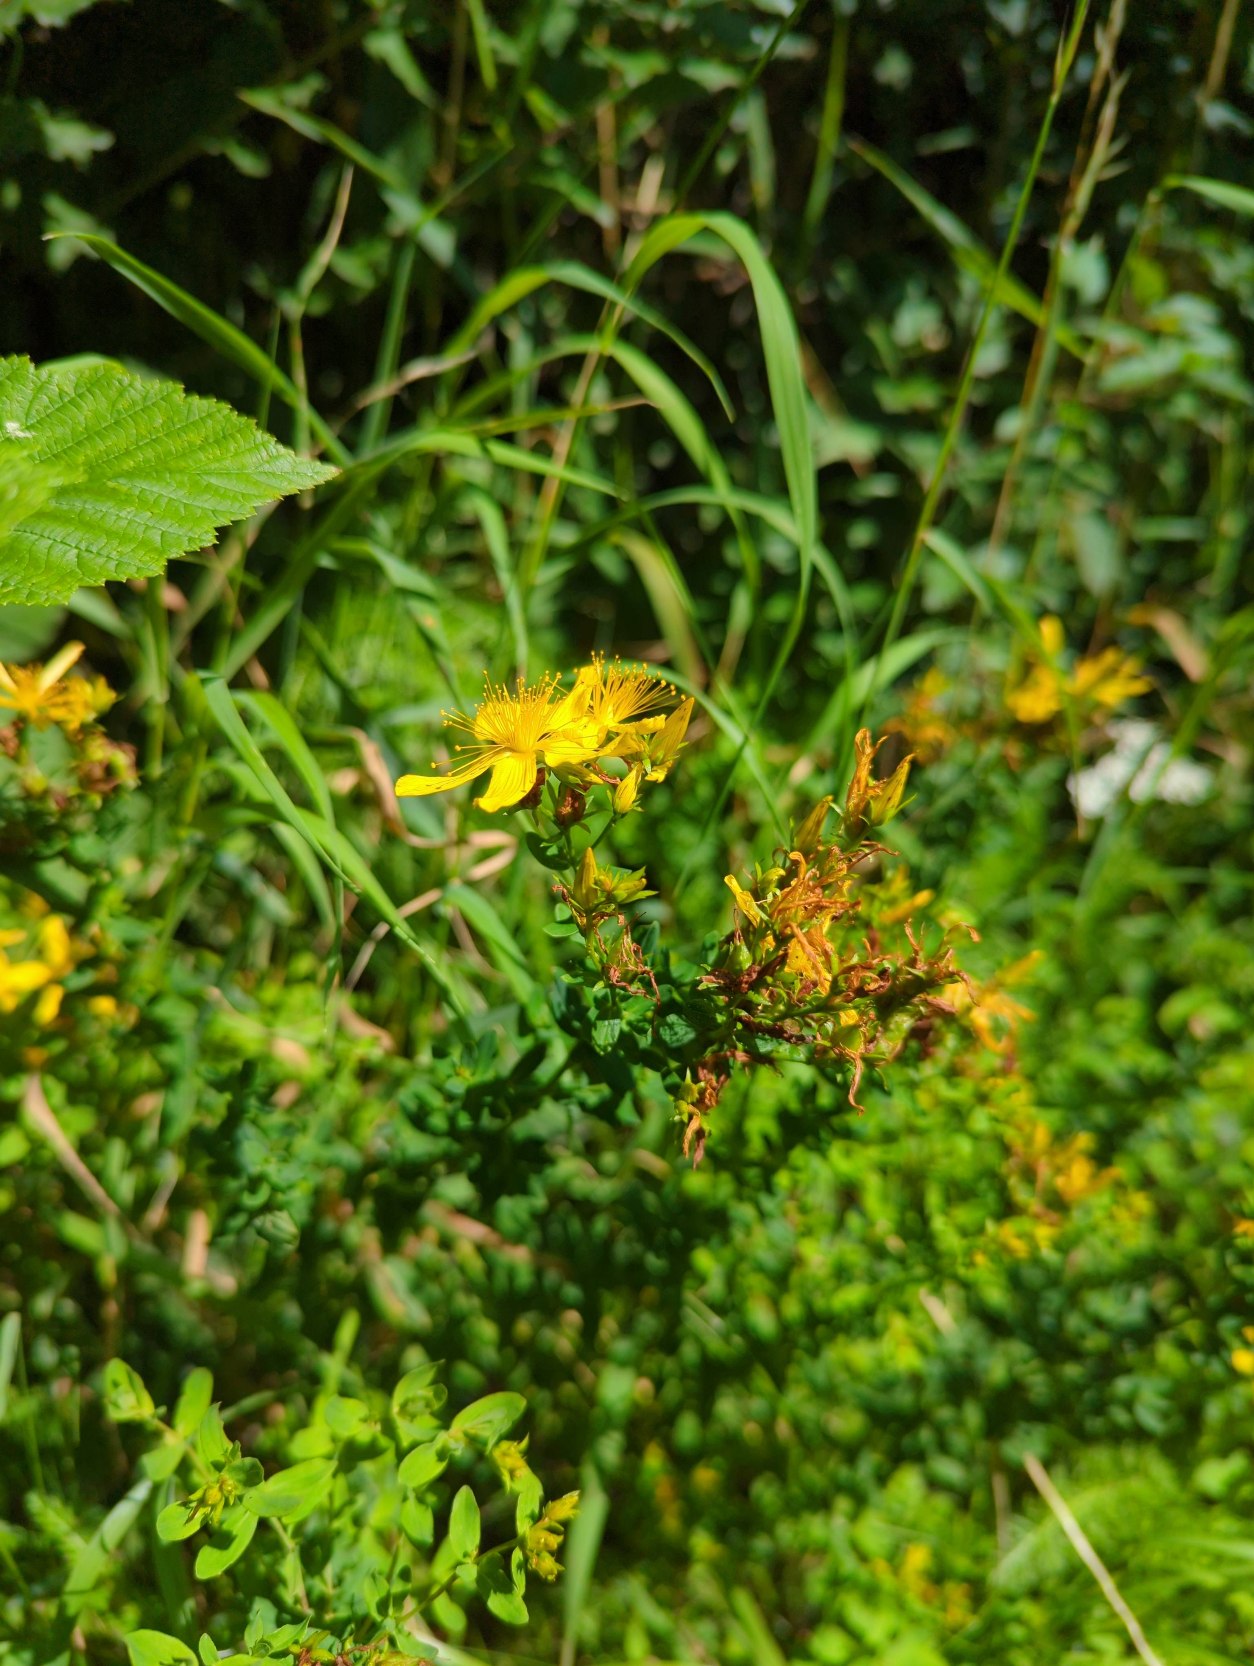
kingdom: Plantae
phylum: Tracheophyta
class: Magnoliopsida
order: Malpighiales
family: Hypericaceae
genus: Hypericum
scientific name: Hypericum perforatum
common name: Prikbladet perikon
